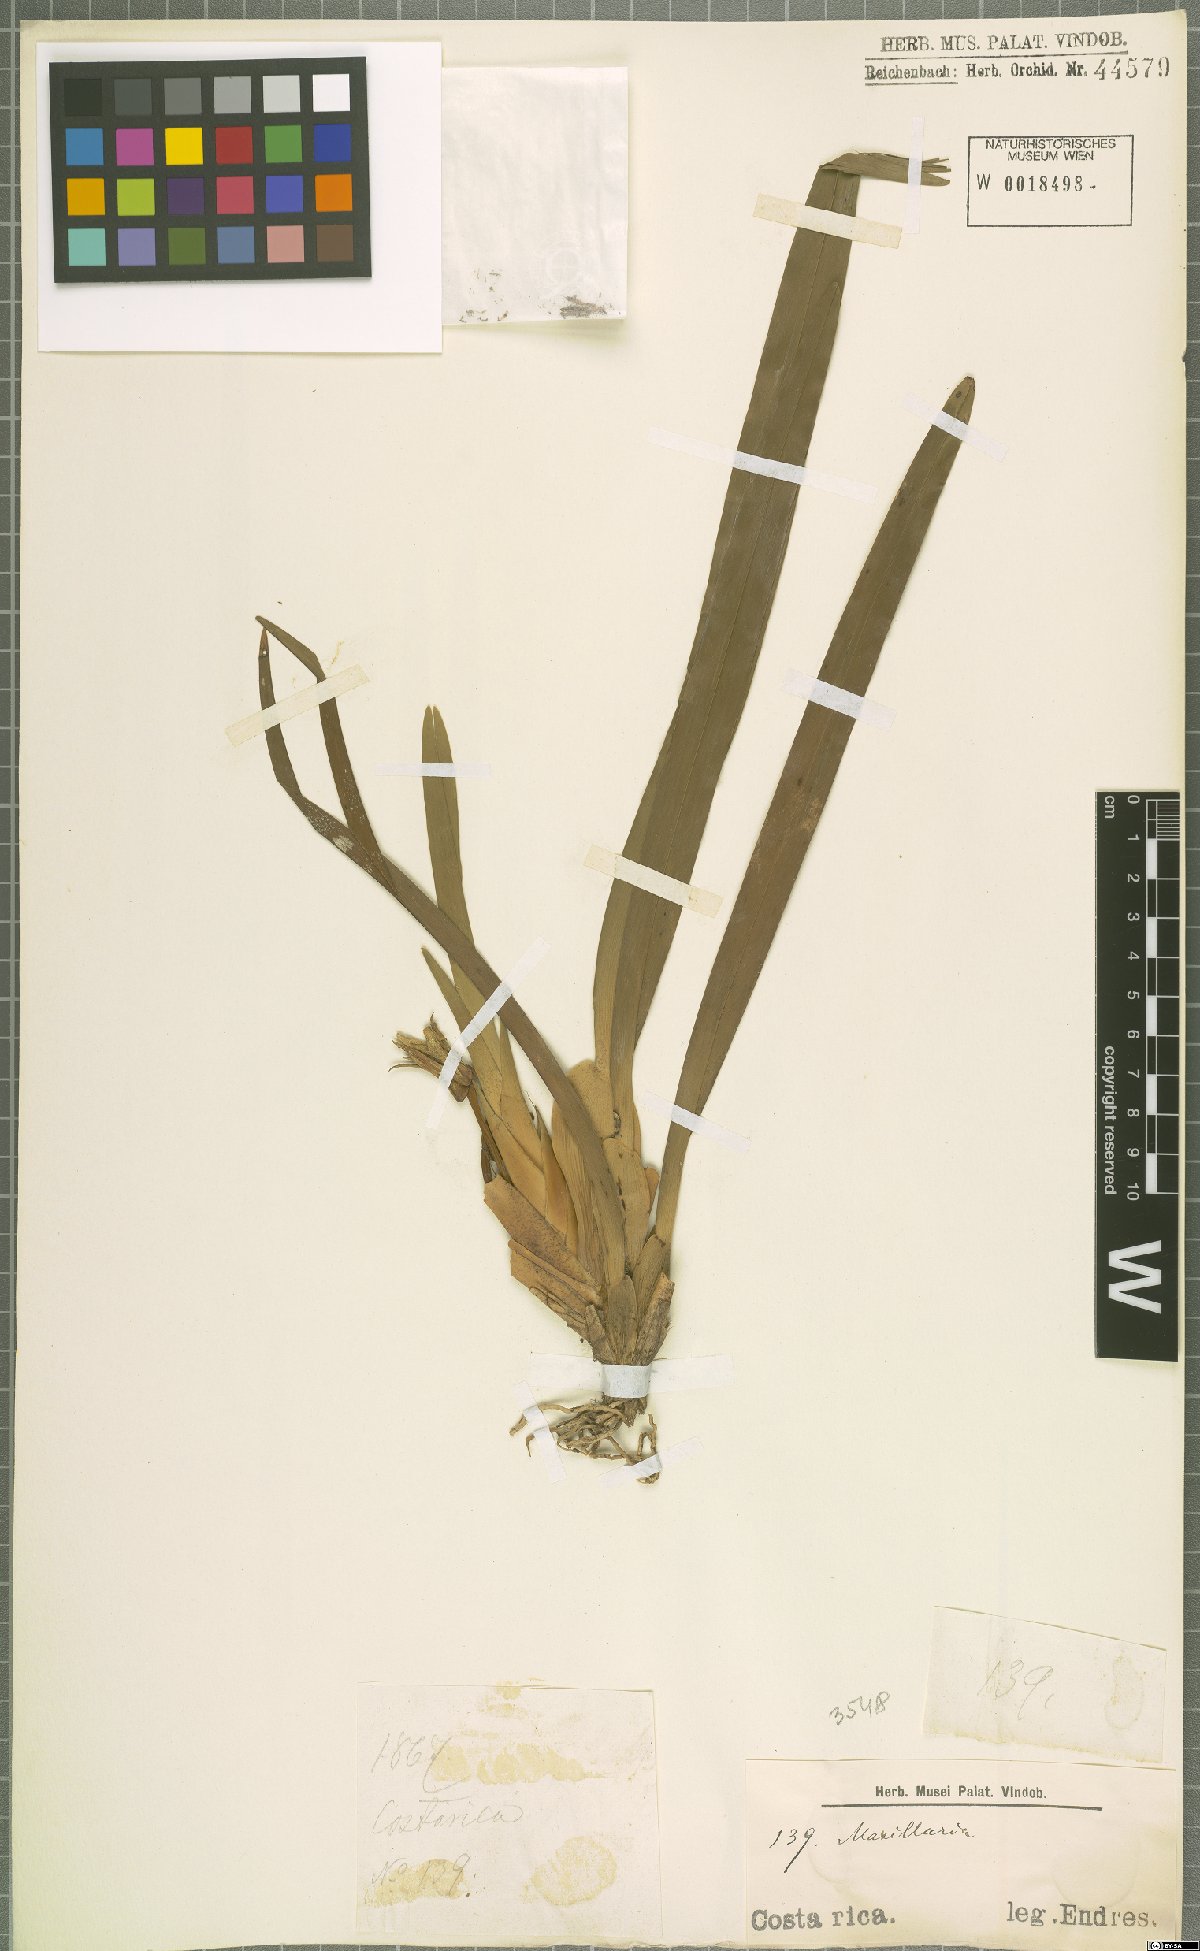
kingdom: Plantae
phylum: Tracheophyta
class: Liliopsida
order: Asparagales
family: Orchidaceae
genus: Maxillaria
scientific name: Maxillaria
